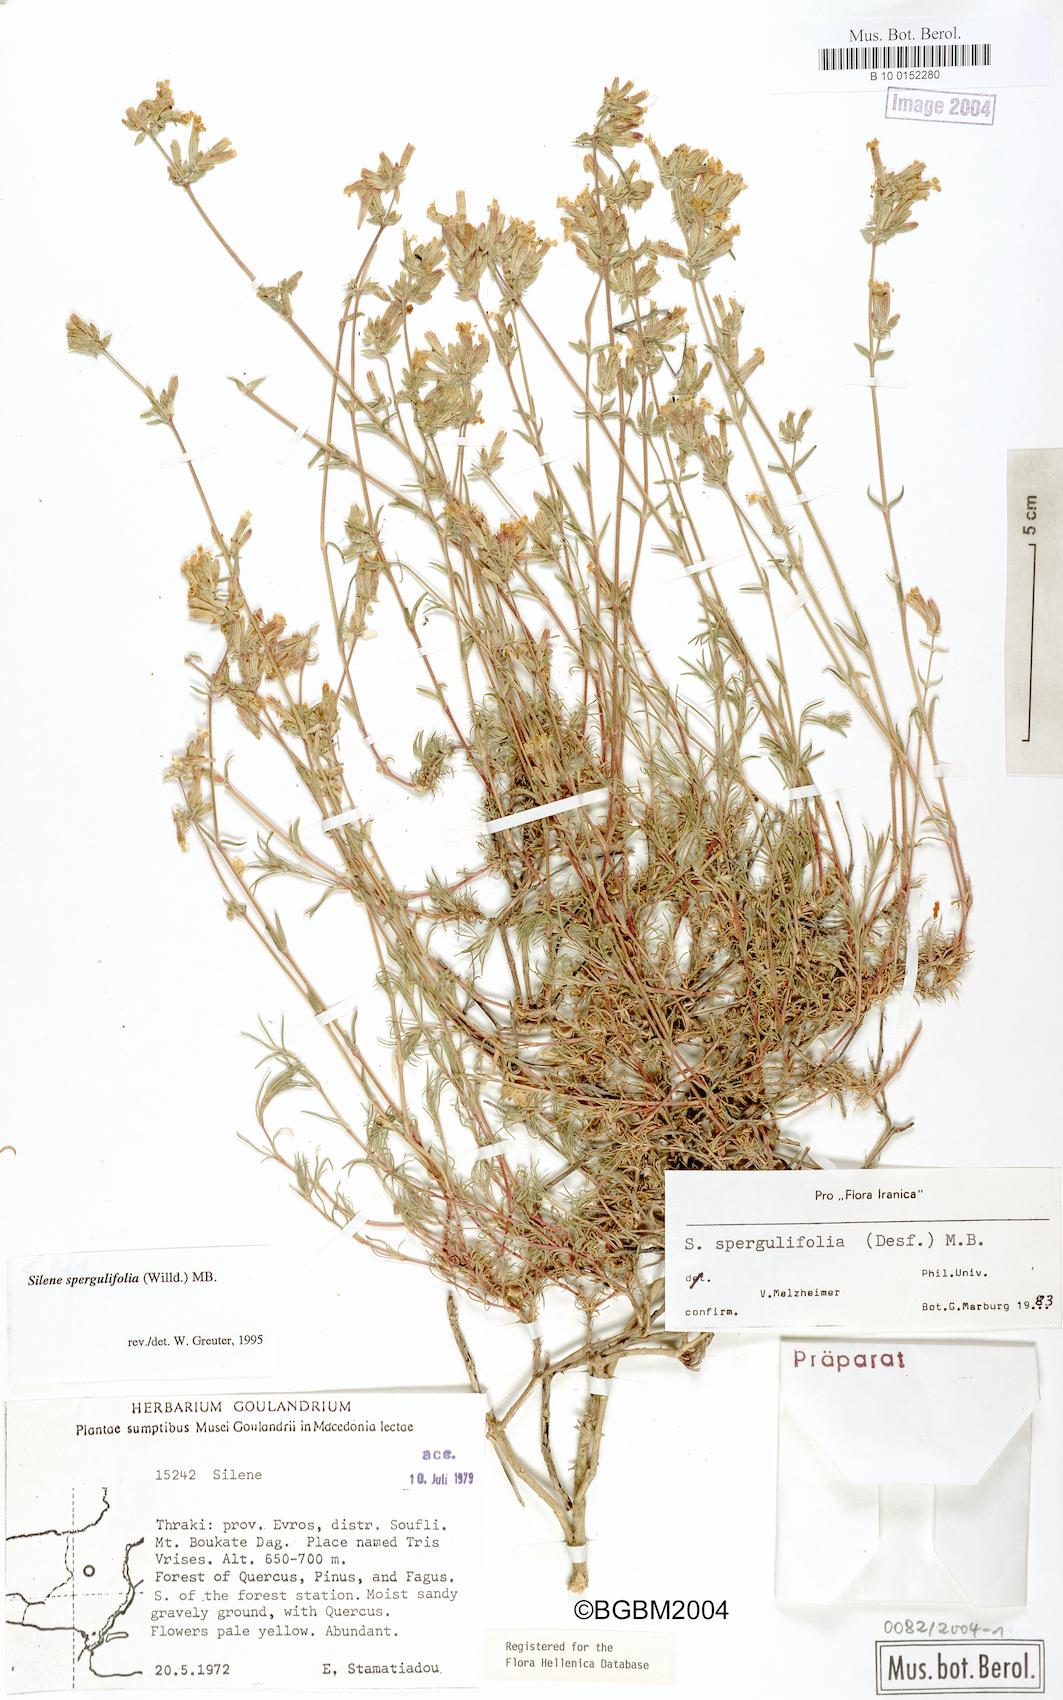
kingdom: Plantae
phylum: Tracheophyta
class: Magnoliopsida
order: Caryophyllales
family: Caryophyllaceae
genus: Silene
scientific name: Silene spergulifolia
